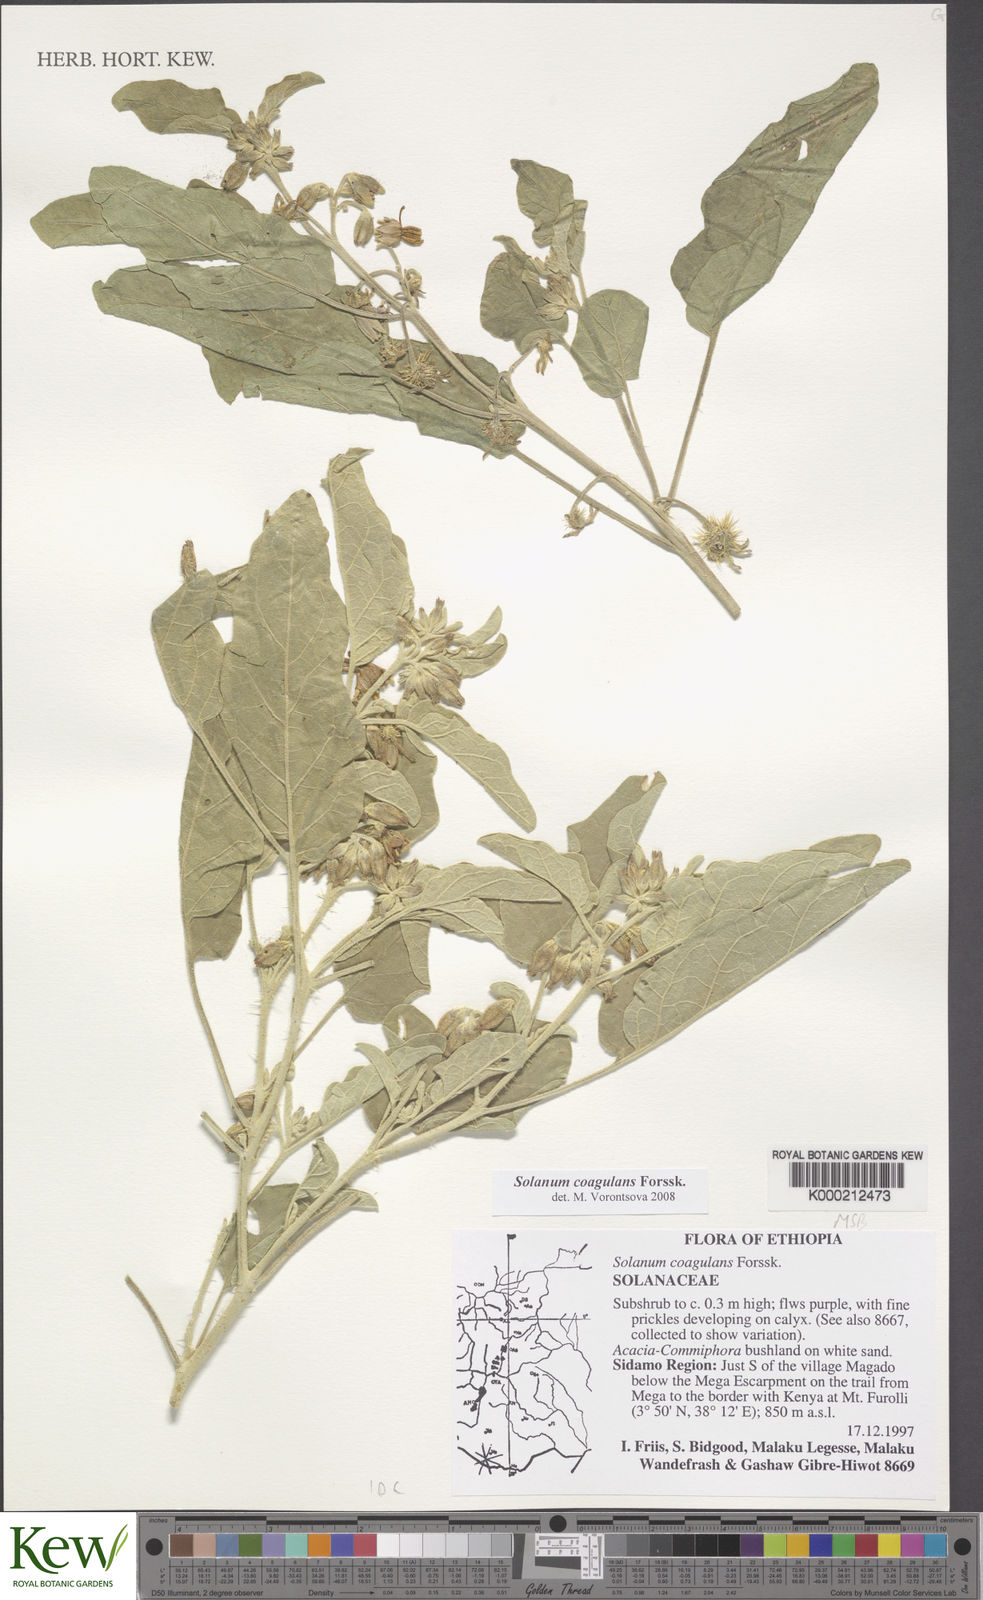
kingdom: Plantae
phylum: Tracheophyta
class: Magnoliopsida
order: Solanales
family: Solanaceae
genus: Solanum
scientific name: Solanum coagulans
